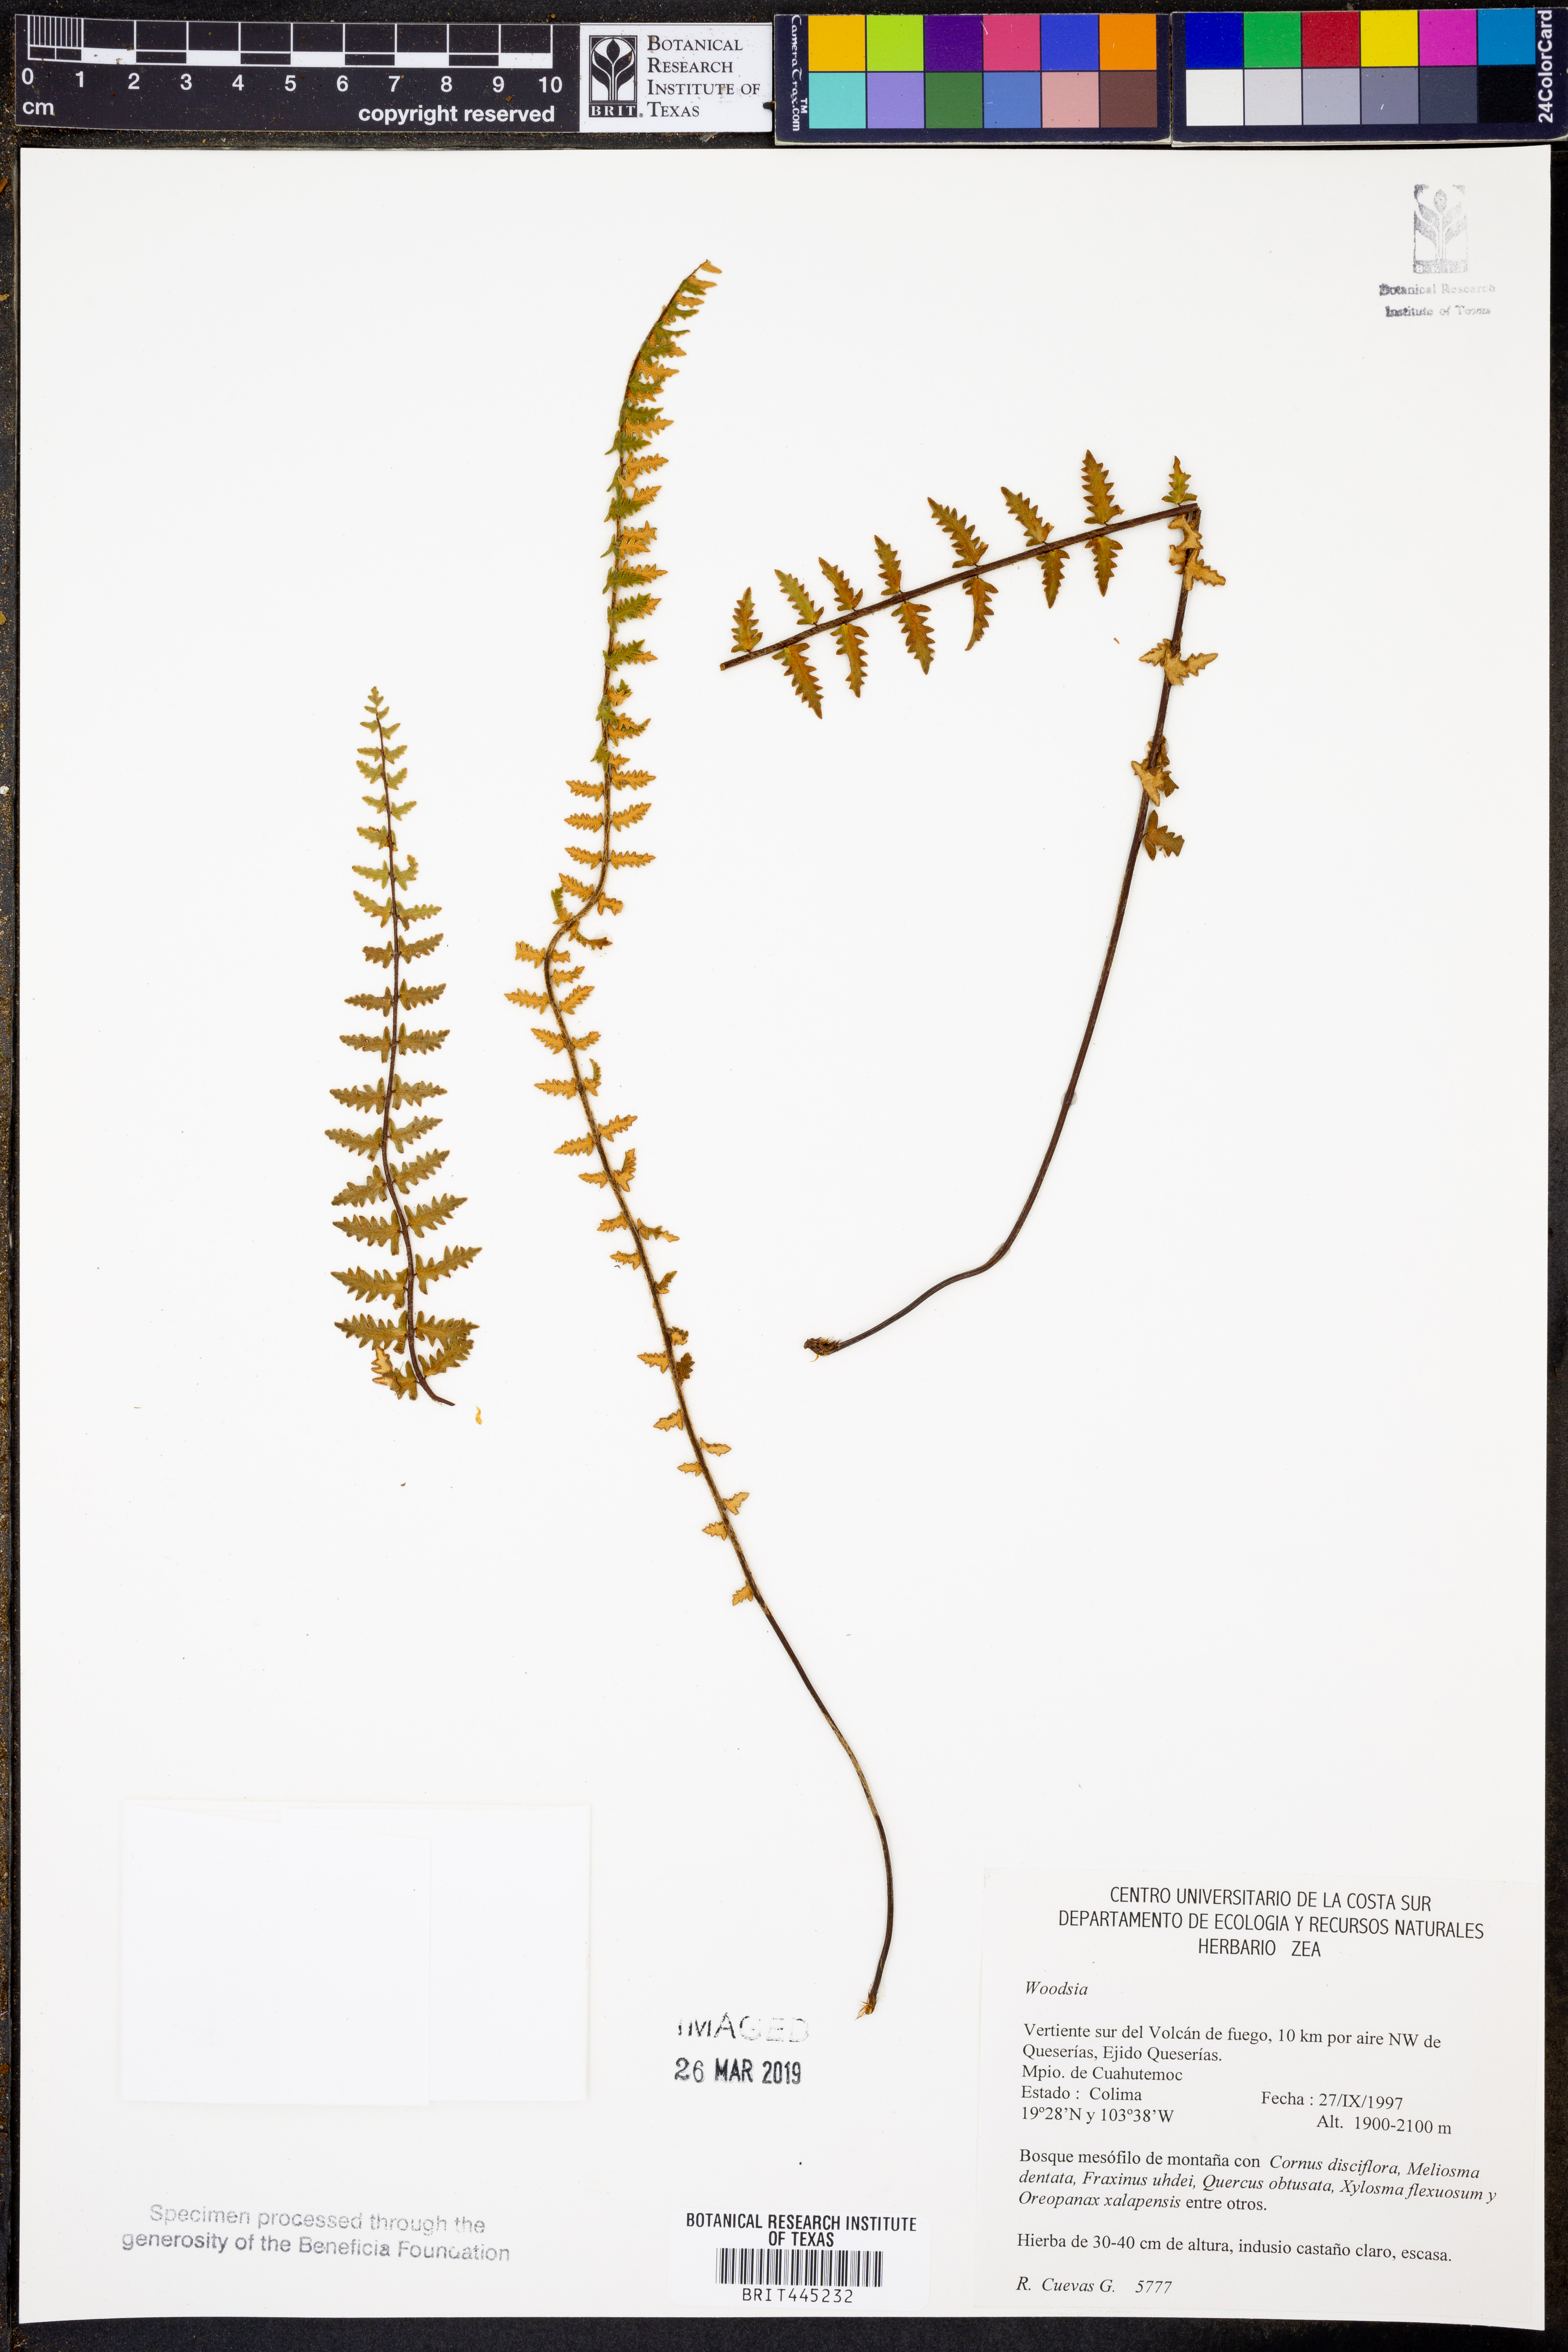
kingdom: Plantae
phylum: Tracheophyta
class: Polypodiopsida
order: Polypodiales
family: Woodsiaceae
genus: Woodsia
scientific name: Woodsia
